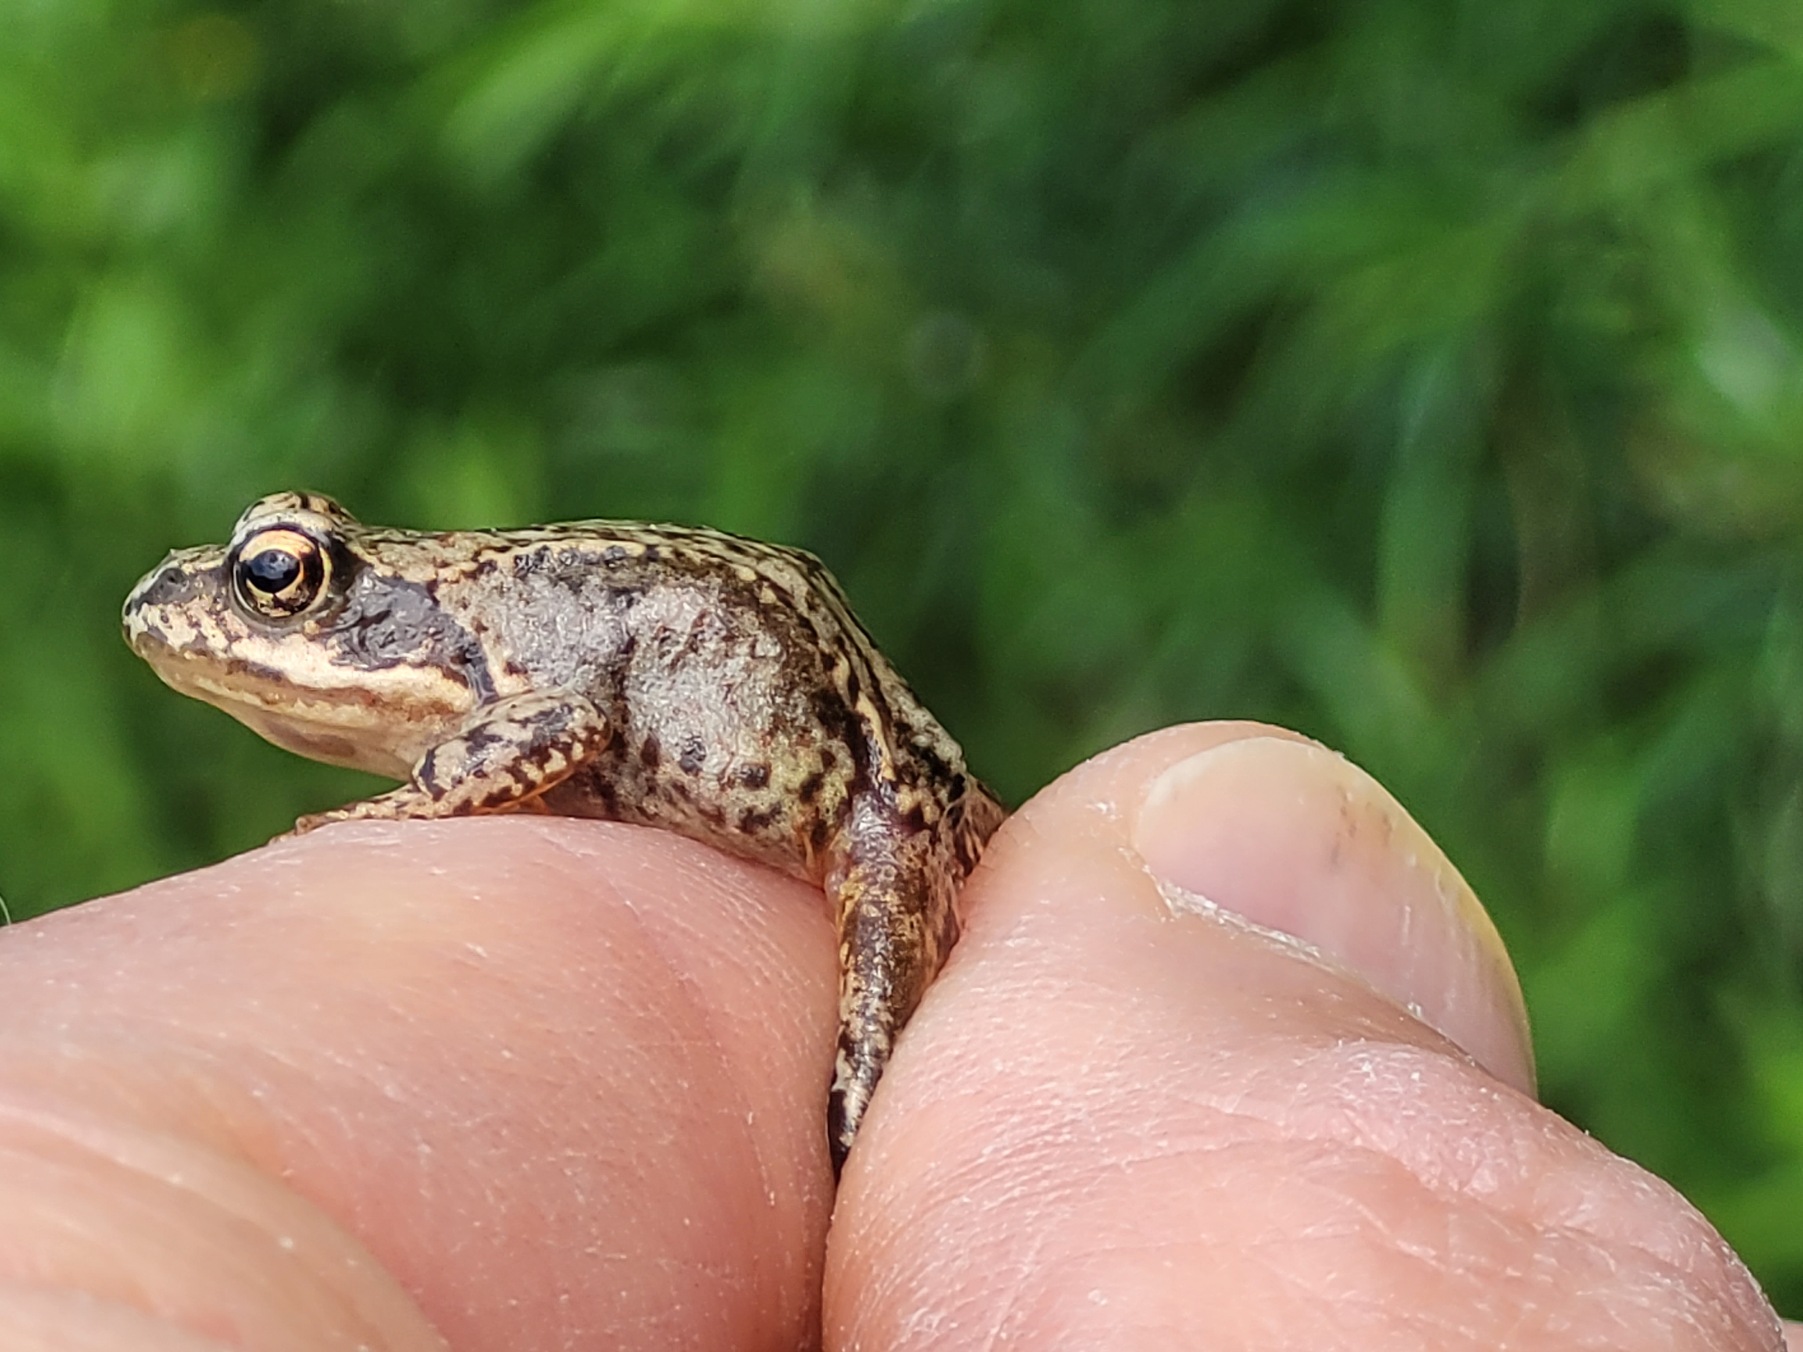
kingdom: Animalia
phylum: Chordata
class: Amphibia
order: Anura
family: Ranidae
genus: Rana
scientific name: Rana temporaria
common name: Butsnudet frø
